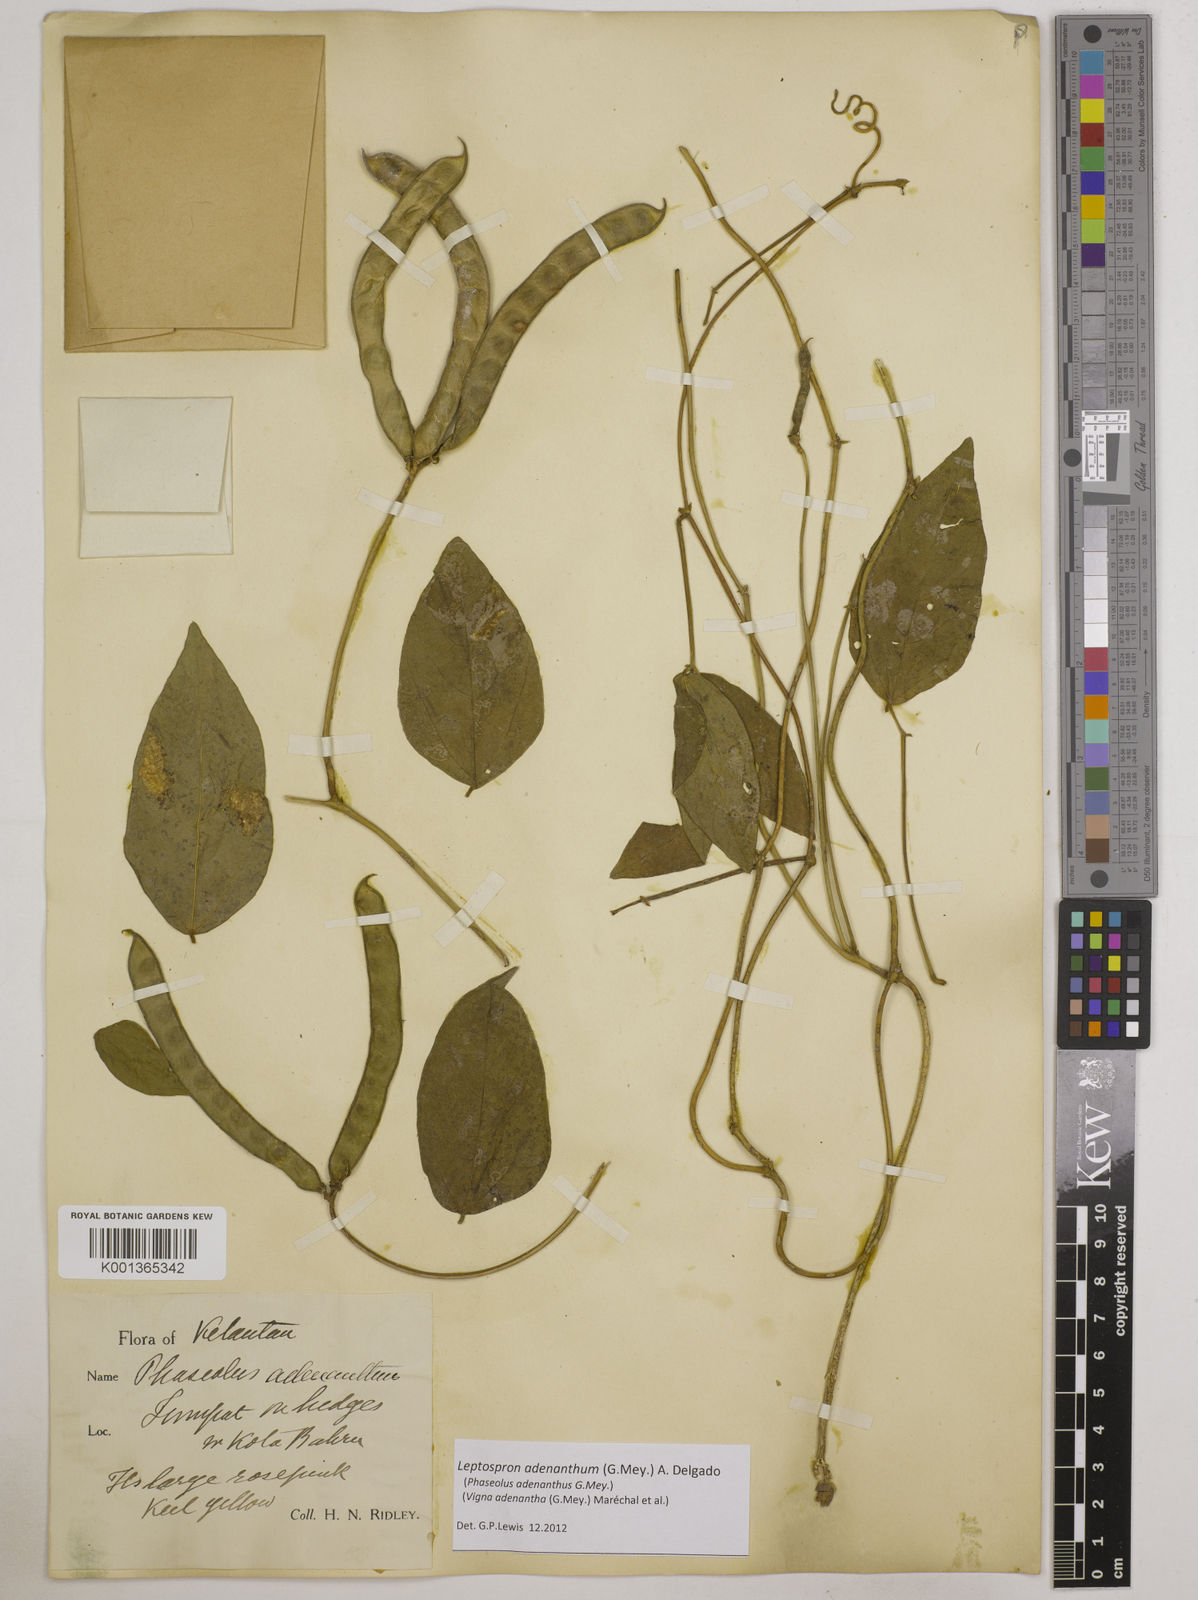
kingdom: Plantae
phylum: Tracheophyta
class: Magnoliopsida
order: Fabales
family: Fabaceae
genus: Leptospron
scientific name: Leptospron adenanthum
